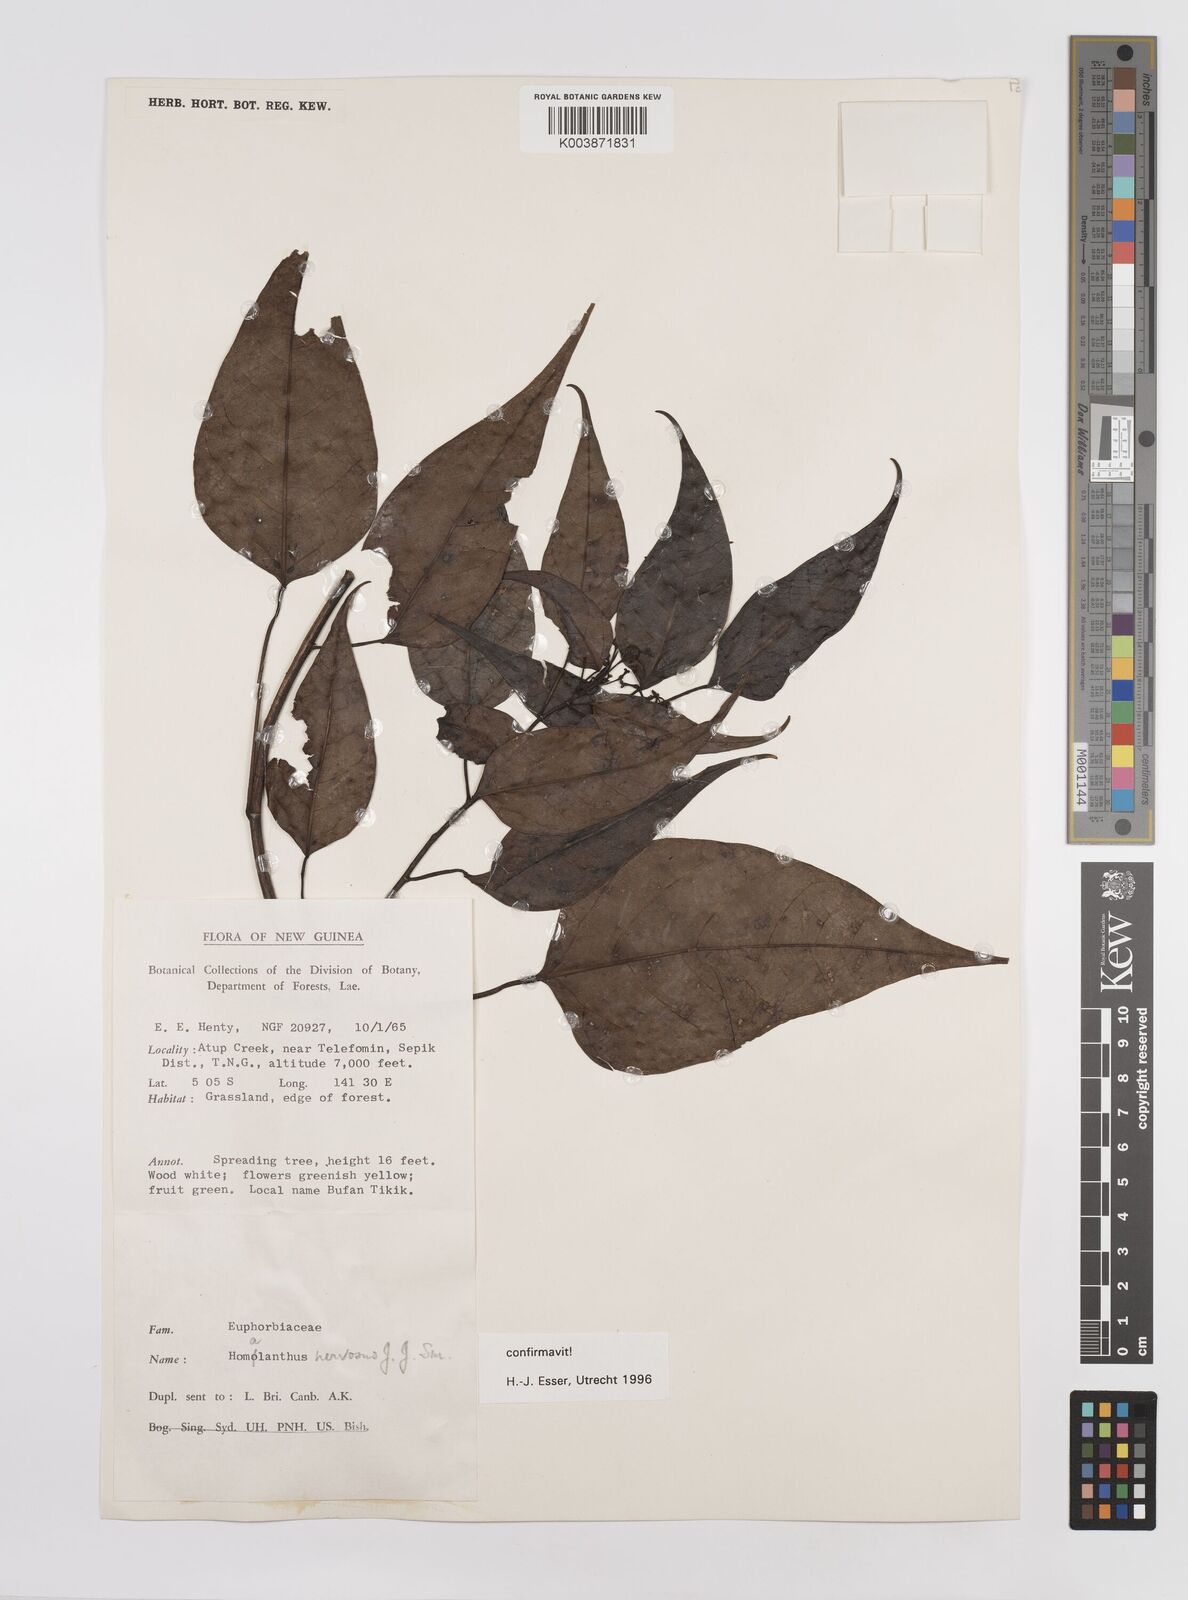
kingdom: Plantae
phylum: Tracheophyta
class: Magnoliopsida
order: Malpighiales
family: Euphorbiaceae
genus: Homalanthus
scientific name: Homalanthus nervosus
